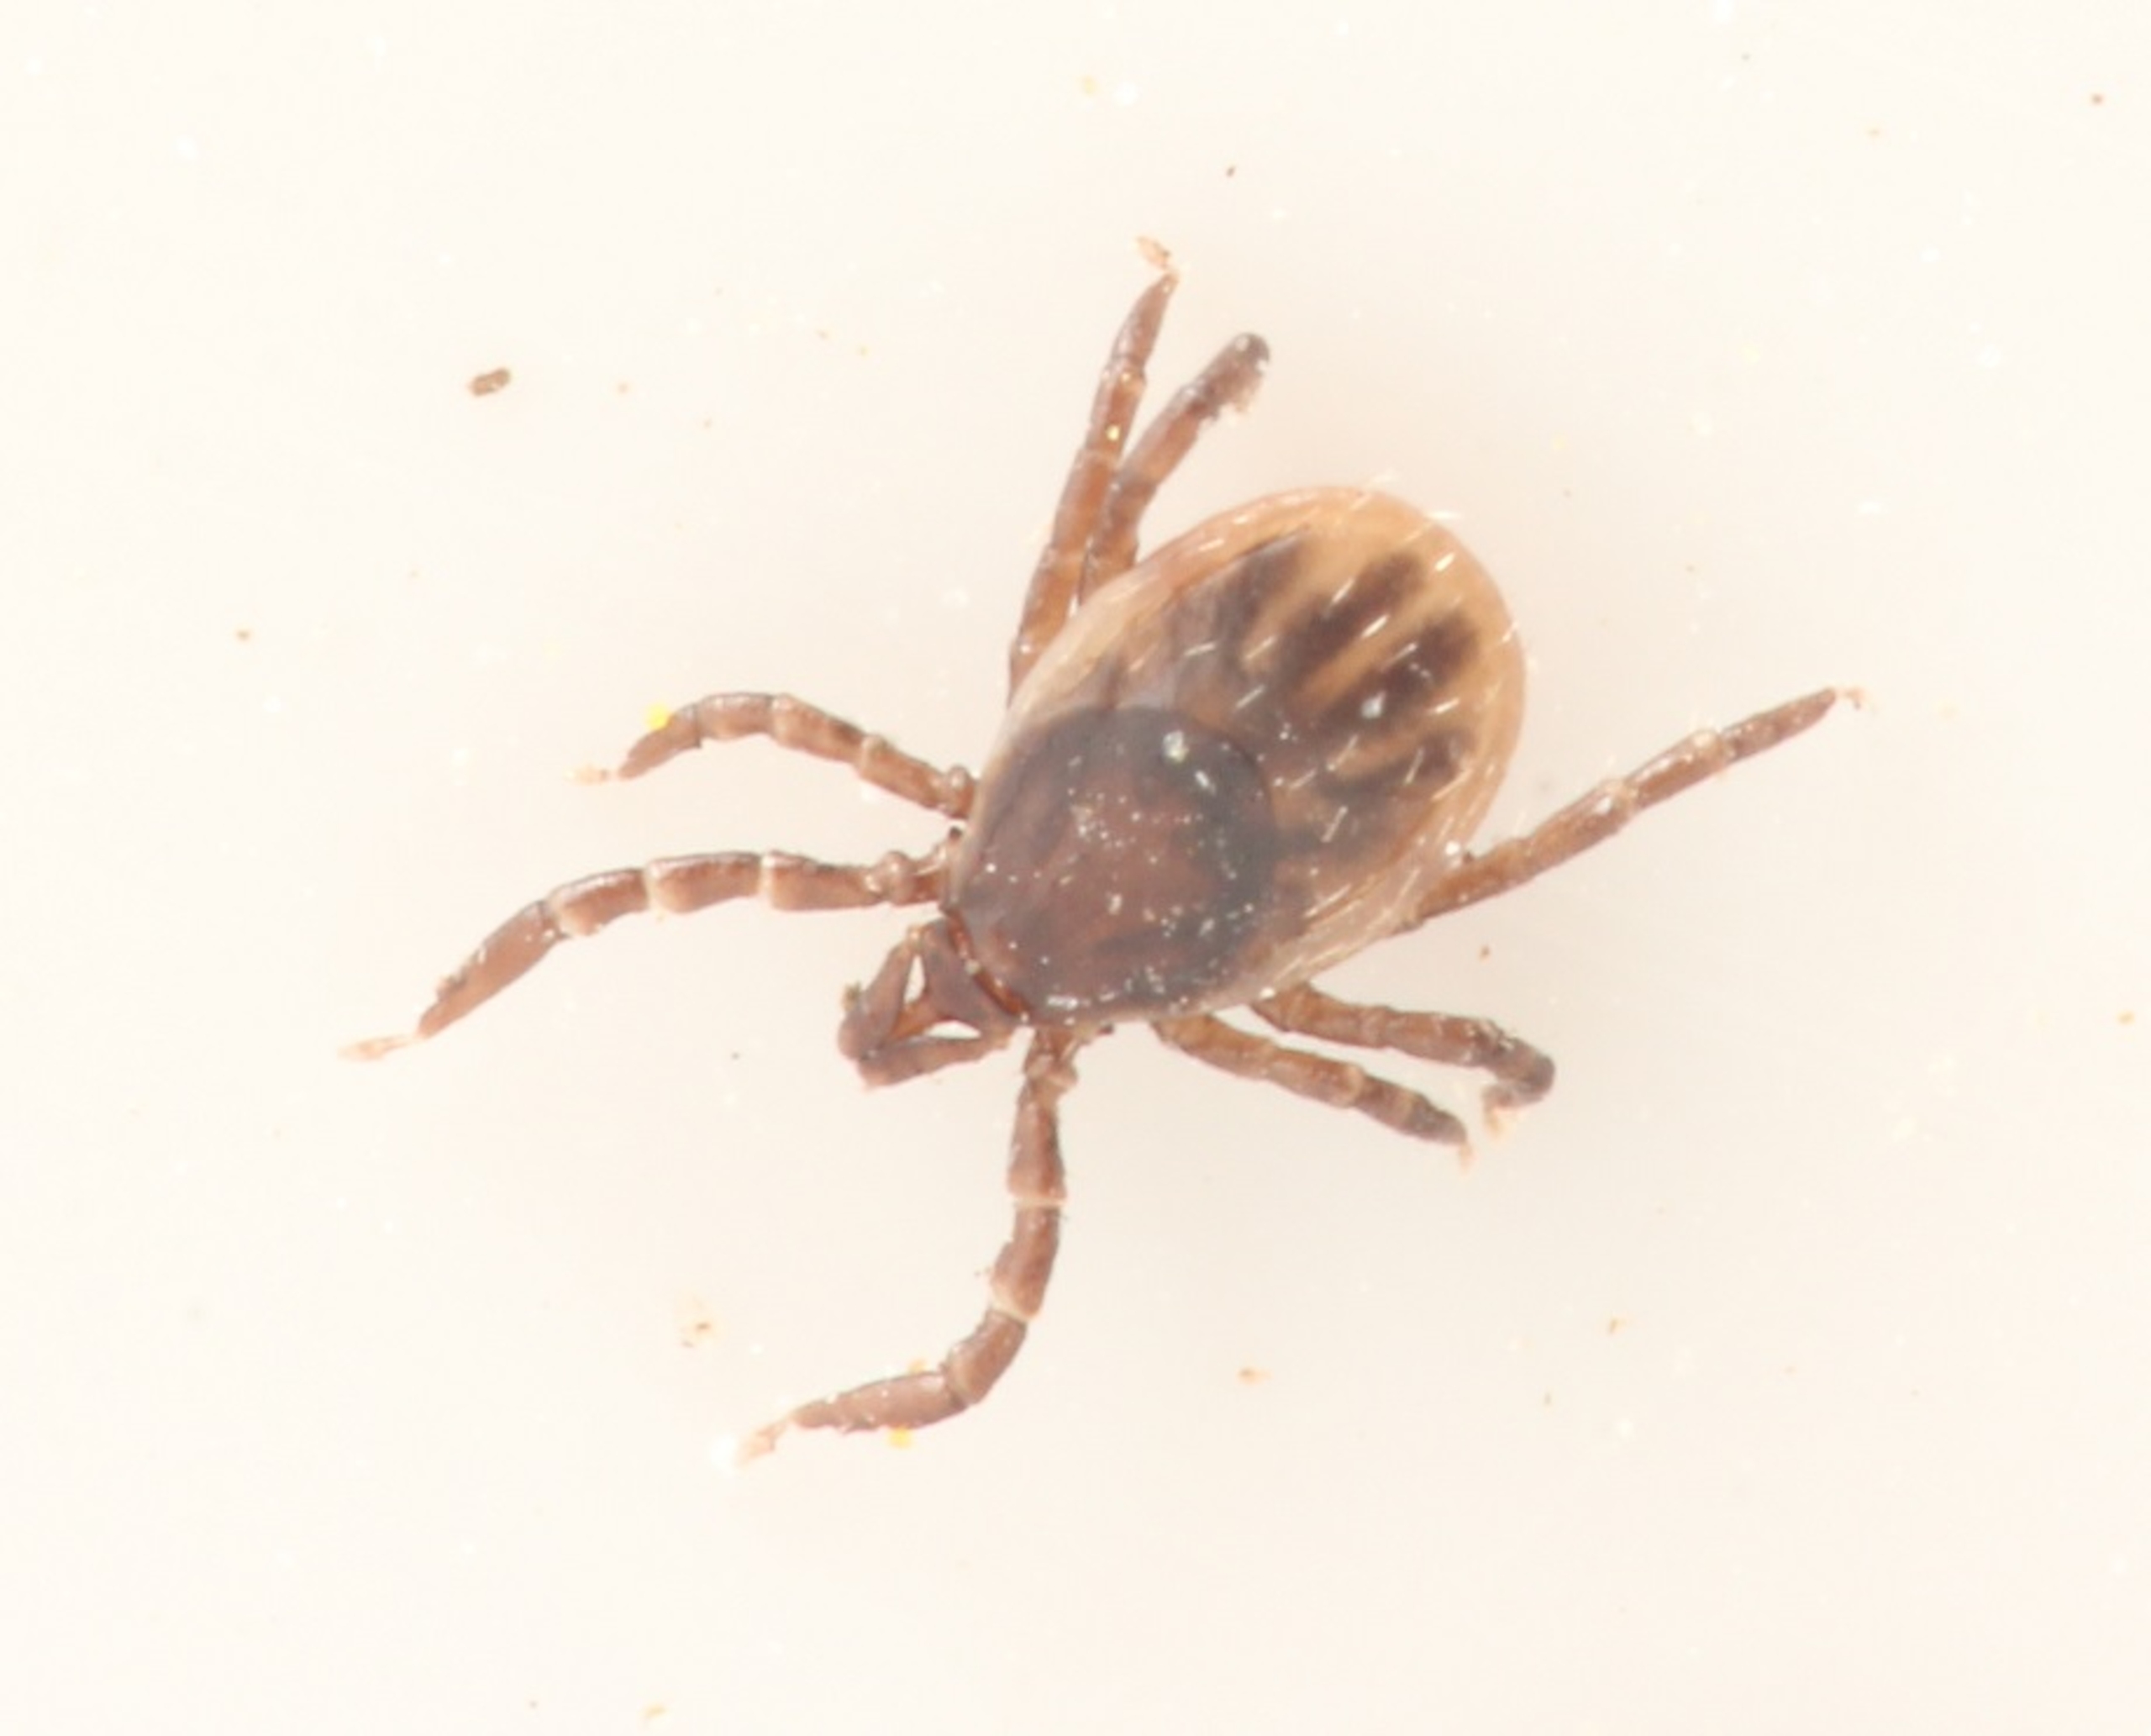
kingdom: Animalia
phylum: Arthropoda
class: Arachnida
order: Ixodida
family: Ixodidae
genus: Ixodes
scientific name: Ixodes ricinus
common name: Skovflåt
